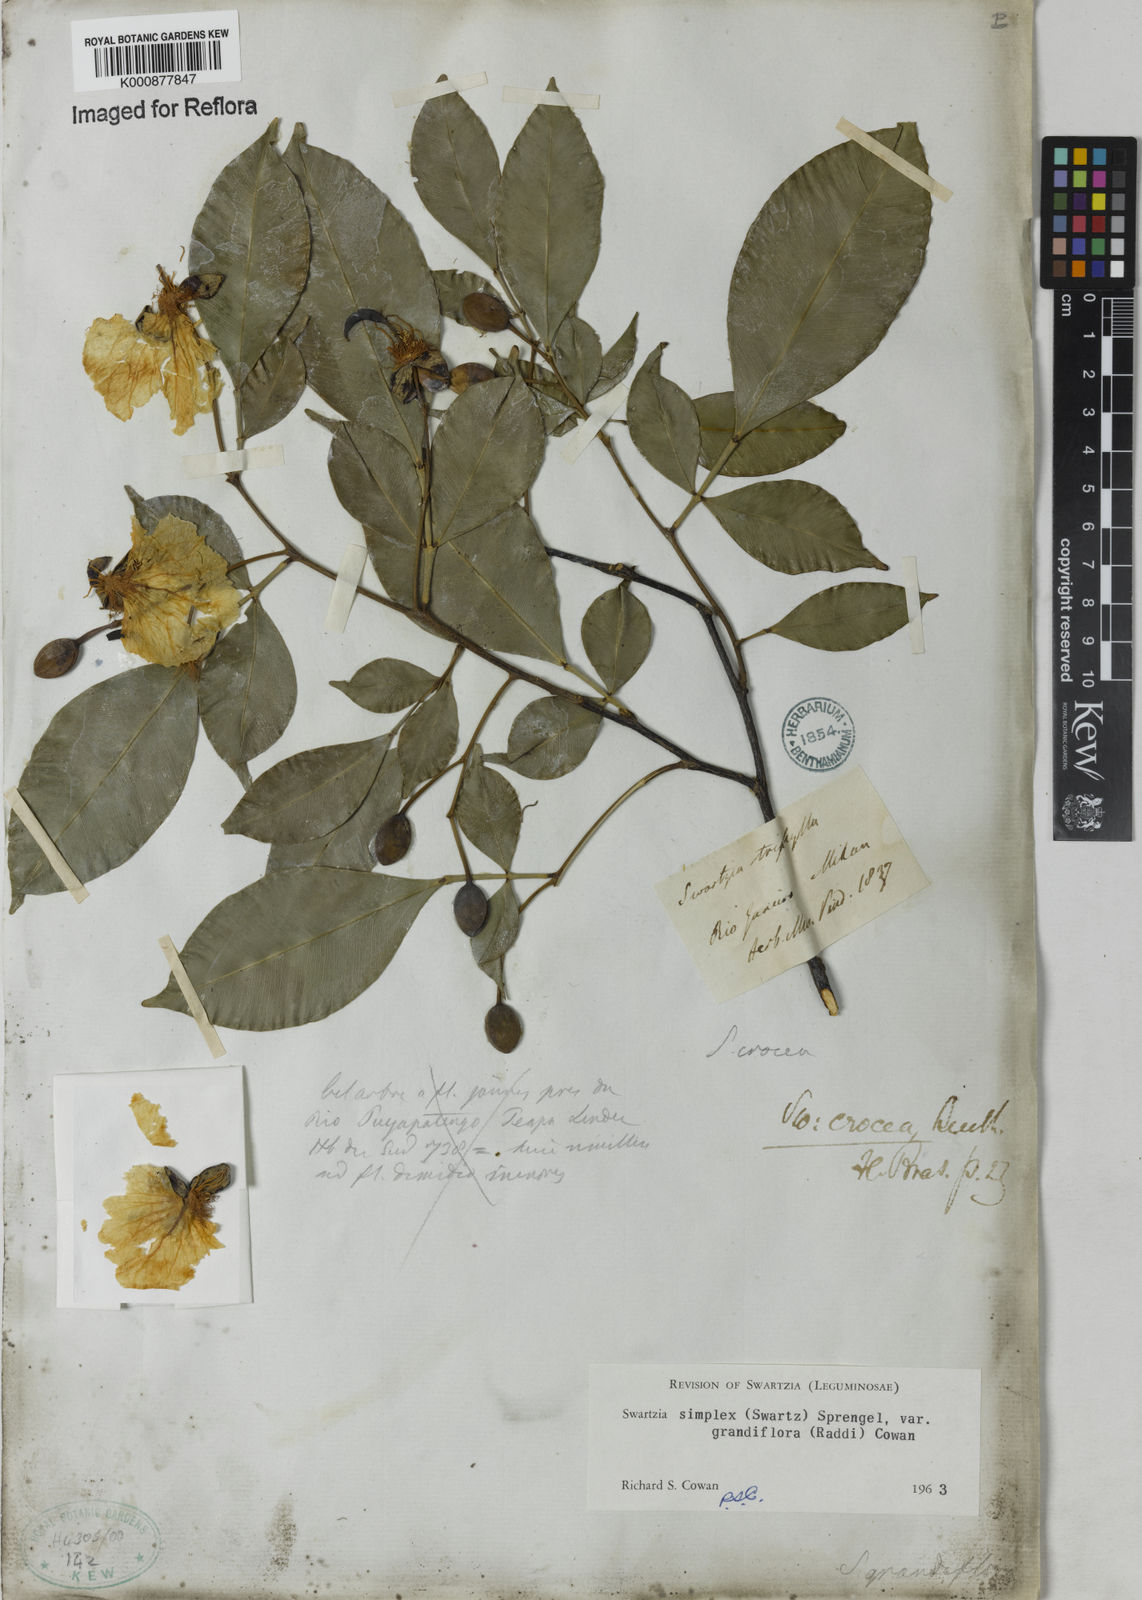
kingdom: Plantae
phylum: Tracheophyta
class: Magnoliopsida
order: Fabales
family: Fabaceae
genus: Swartzia
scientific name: Swartzia simplex
